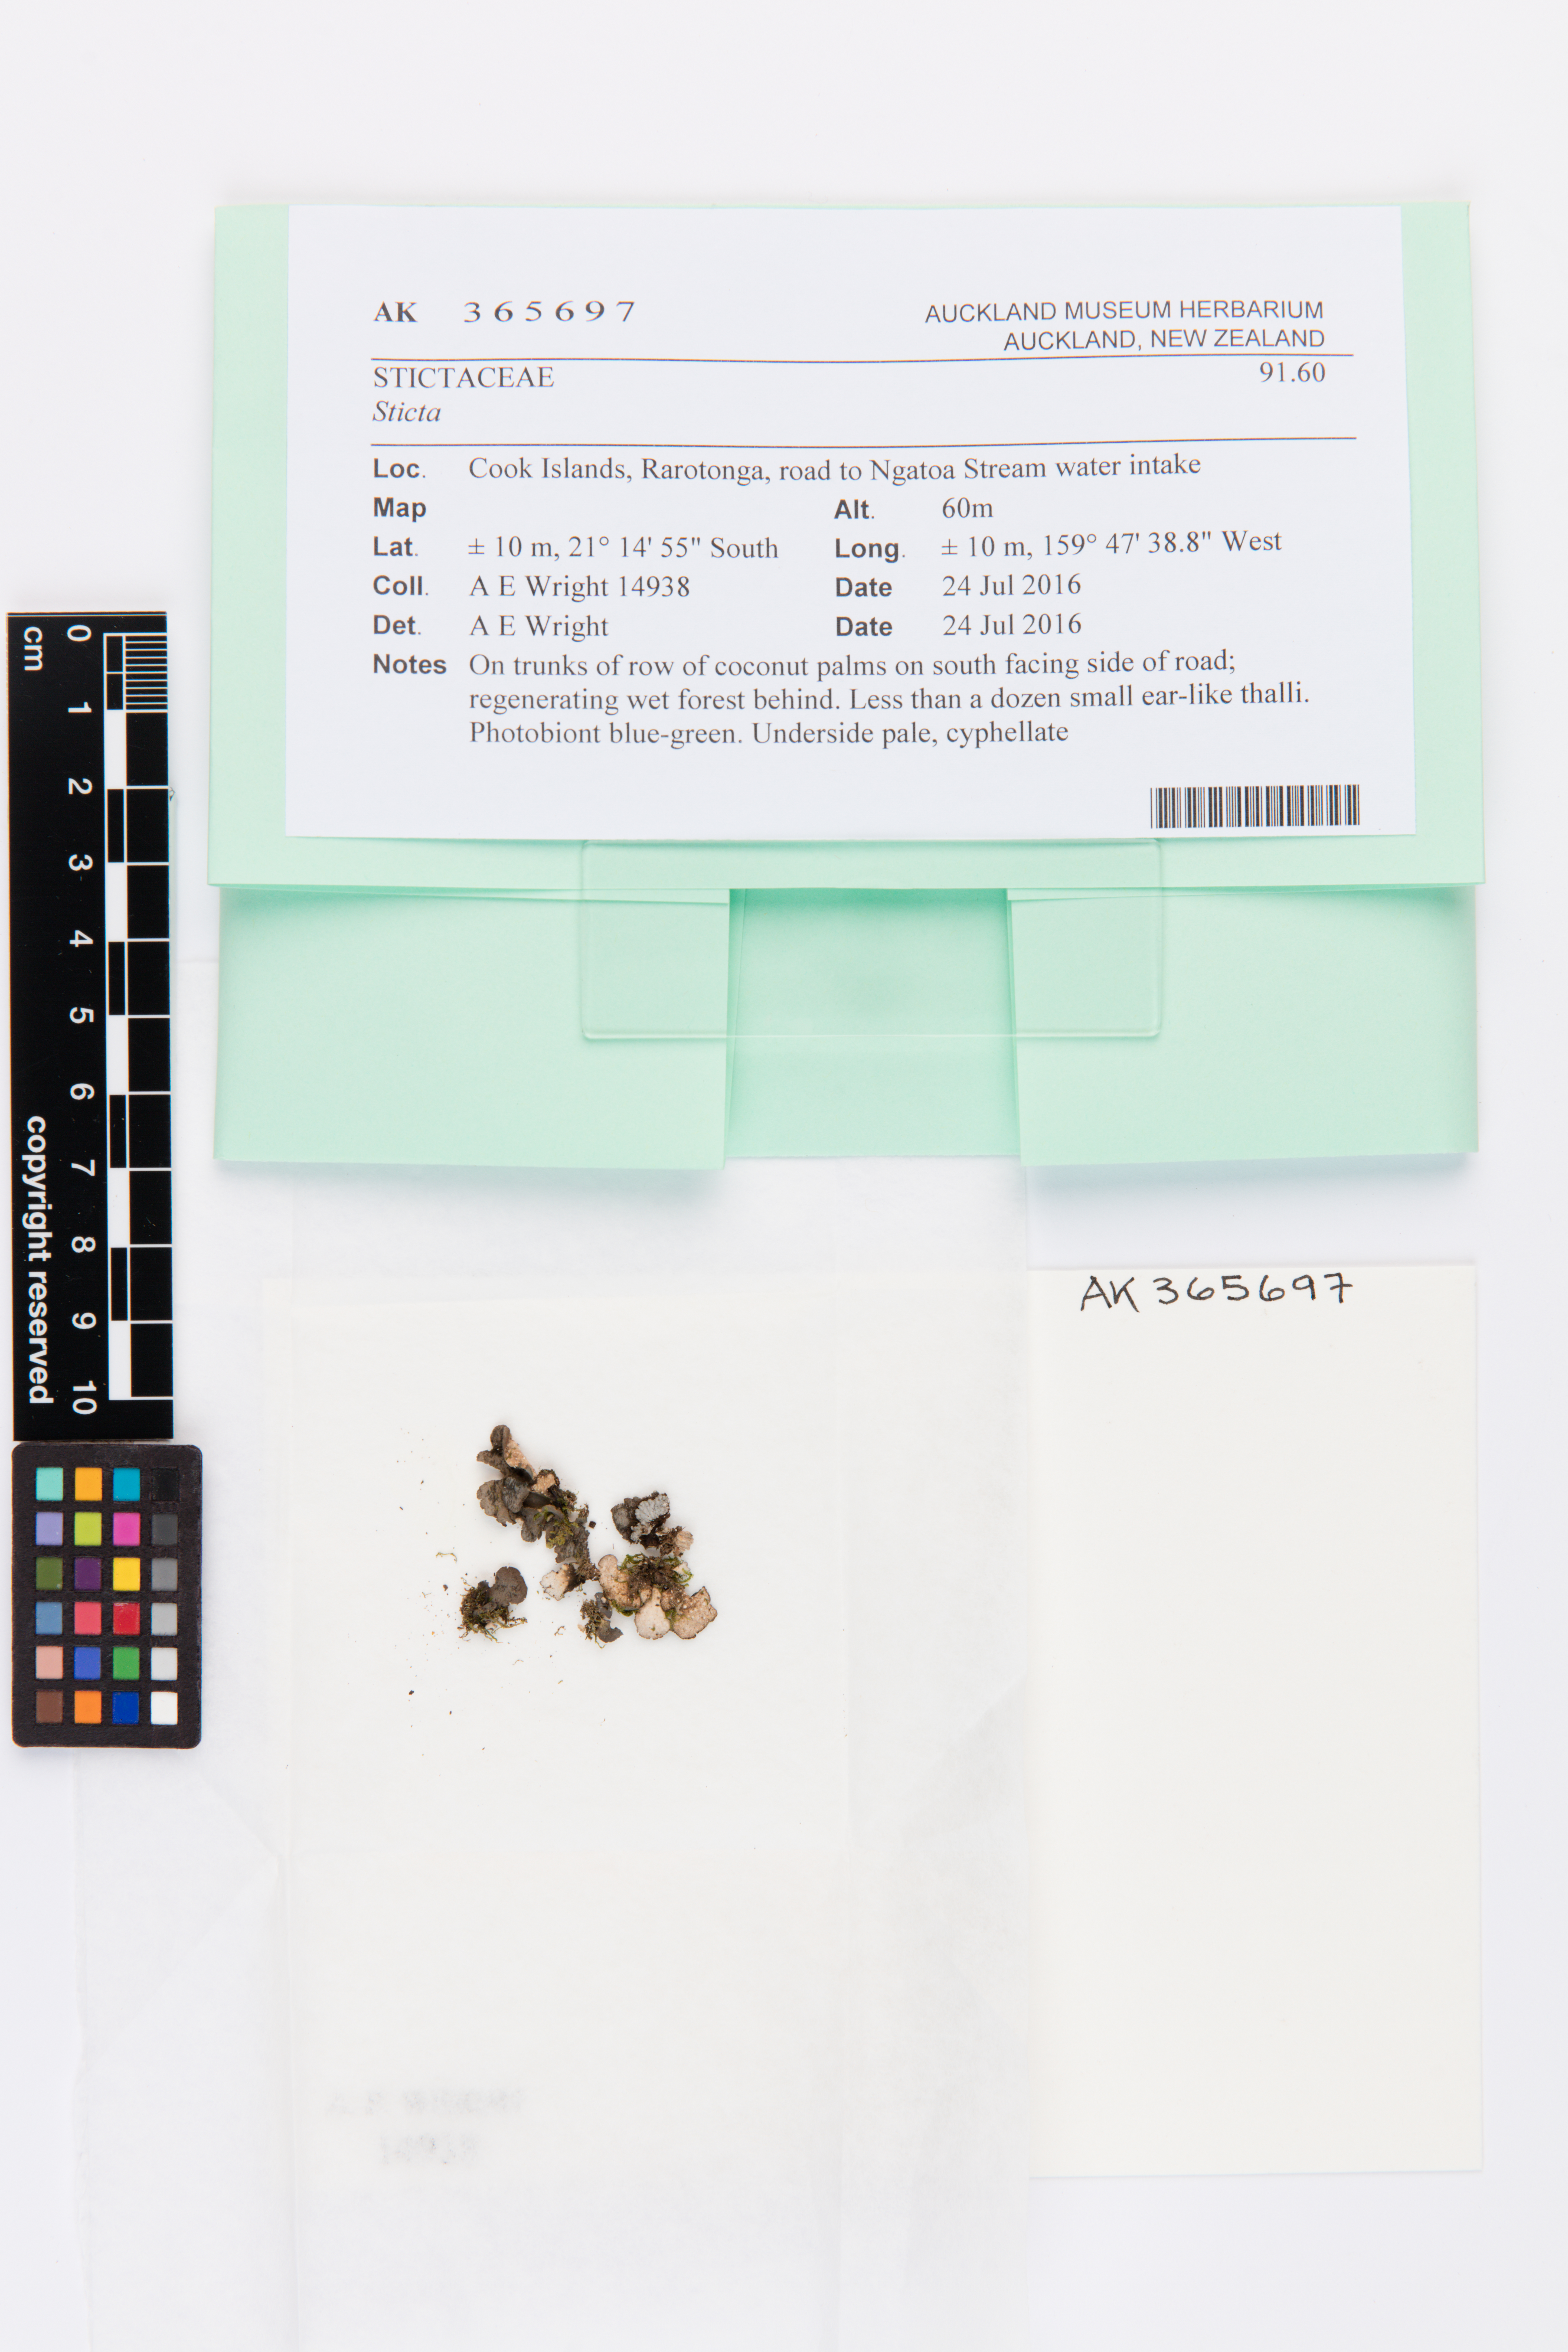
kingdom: Fungi
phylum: Ascomycota
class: Lecanoromycetes
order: Peltigerales
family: Lobariaceae
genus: Sticta
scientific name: Sticta
